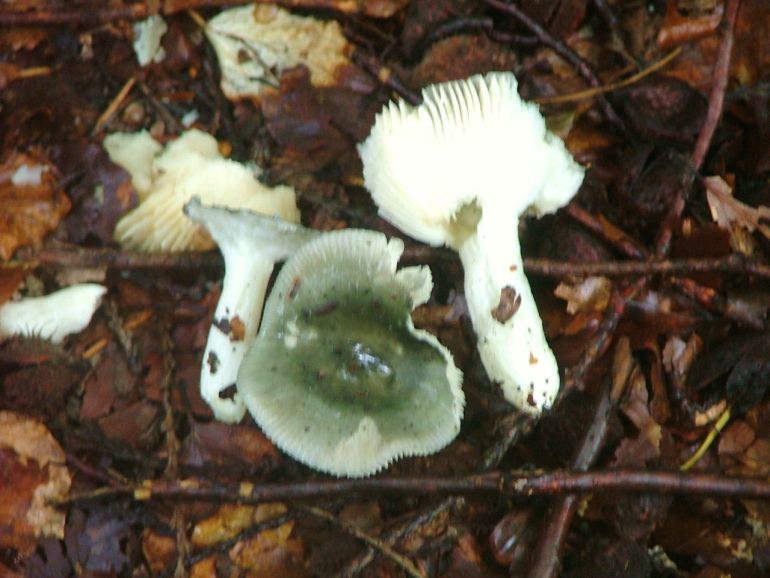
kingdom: Fungi
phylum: Basidiomycota
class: Agaricomycetes
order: Russulales
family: Russulaceae
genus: Russula
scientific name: Russula aeruginea
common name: græsgrøn skørhat
